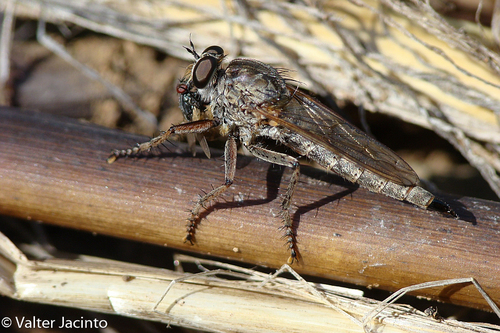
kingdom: Animalia
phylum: Arthropoda
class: Insecta
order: Diptera
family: Asilidae
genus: Machimus
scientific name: Machimus
